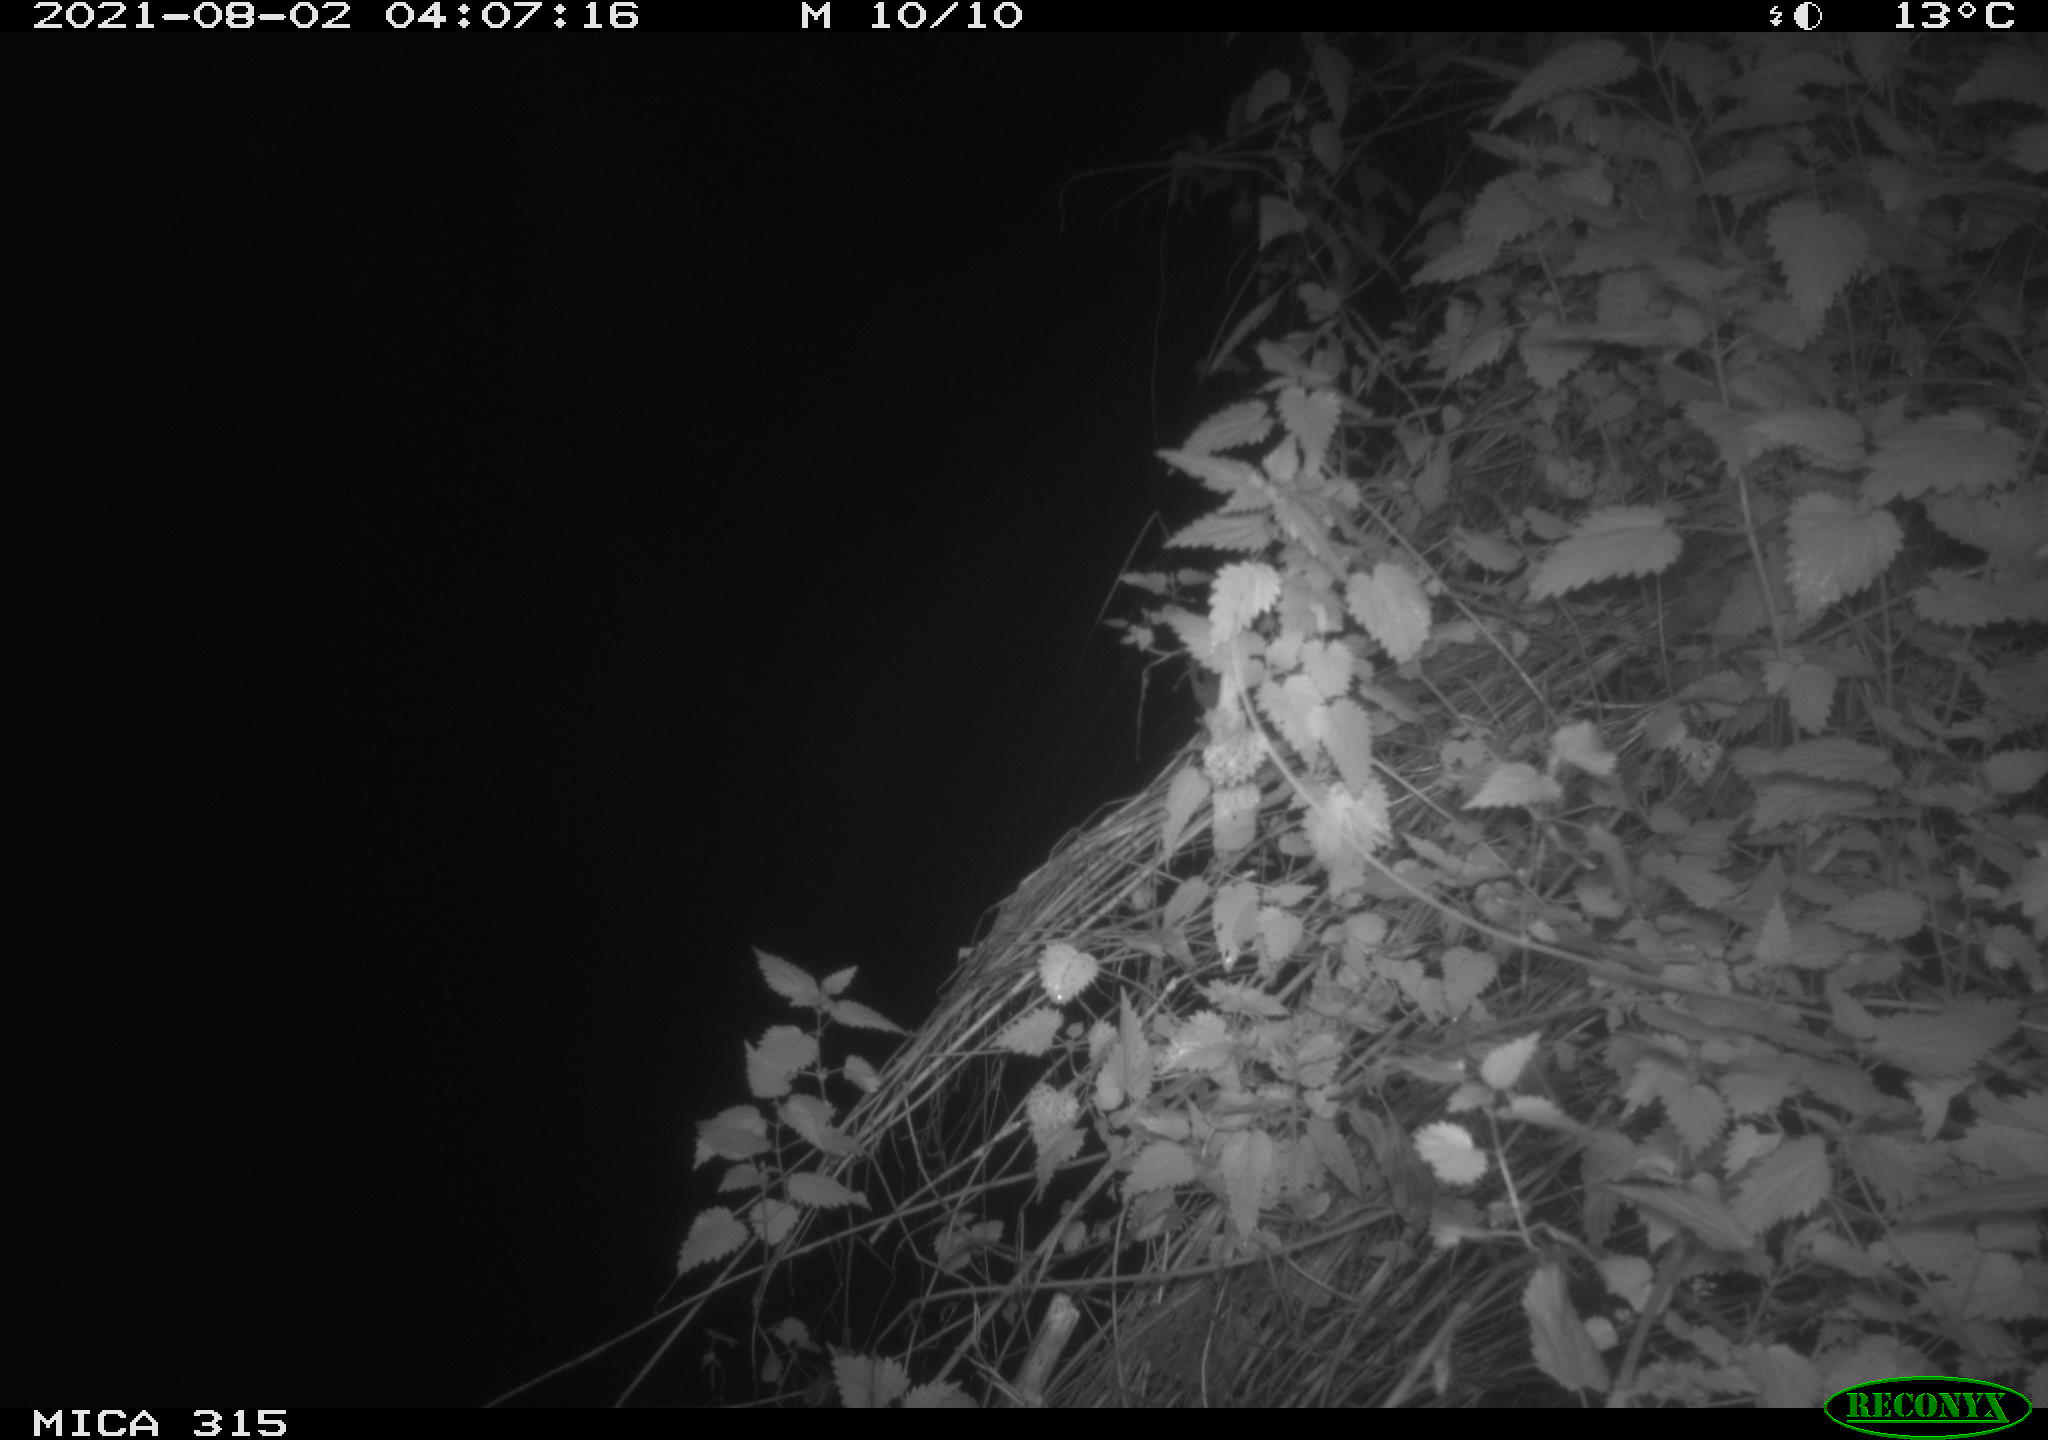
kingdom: Animalia
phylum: Chordata
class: Mammalia
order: Rodentia
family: Muridae
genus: Rattus
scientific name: Rattus norvegicus
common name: Brown rat
